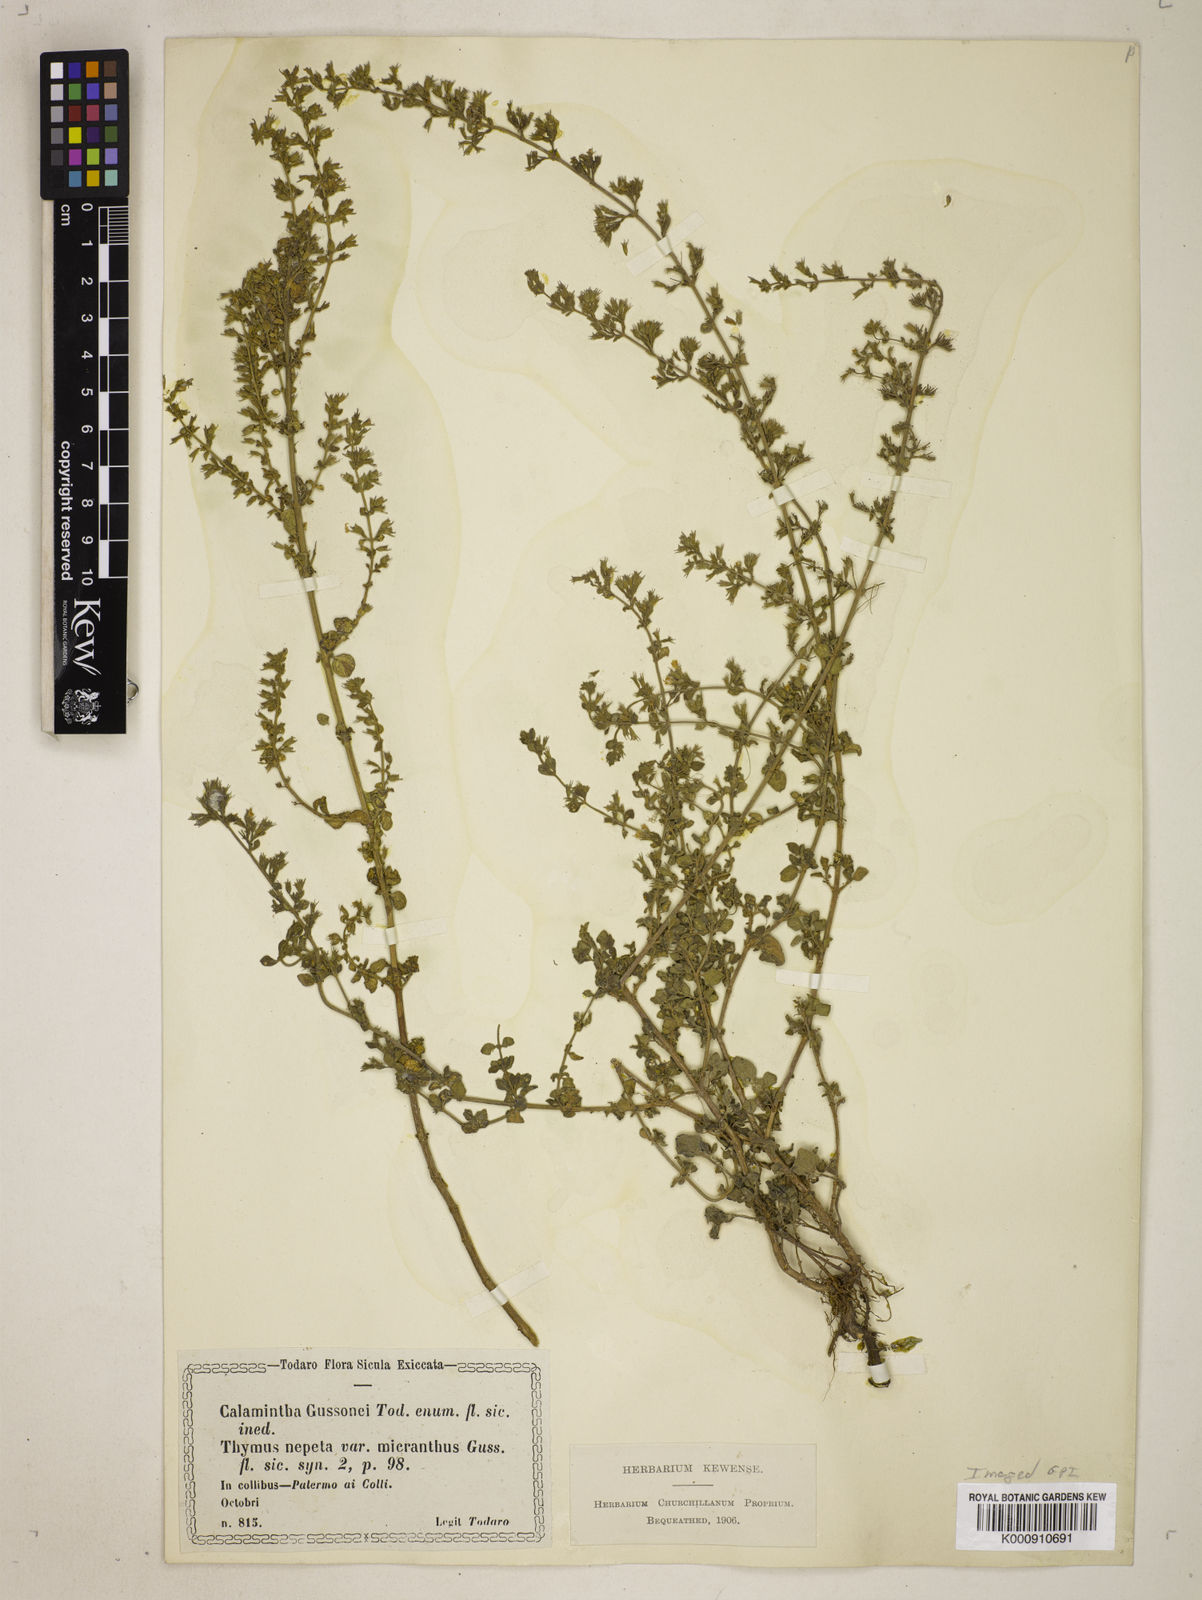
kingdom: Plantae
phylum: Tracheophyta
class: Magnoliopsida
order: Lamiales
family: Lamiaceae
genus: Clinopodium
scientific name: Clinopodium
